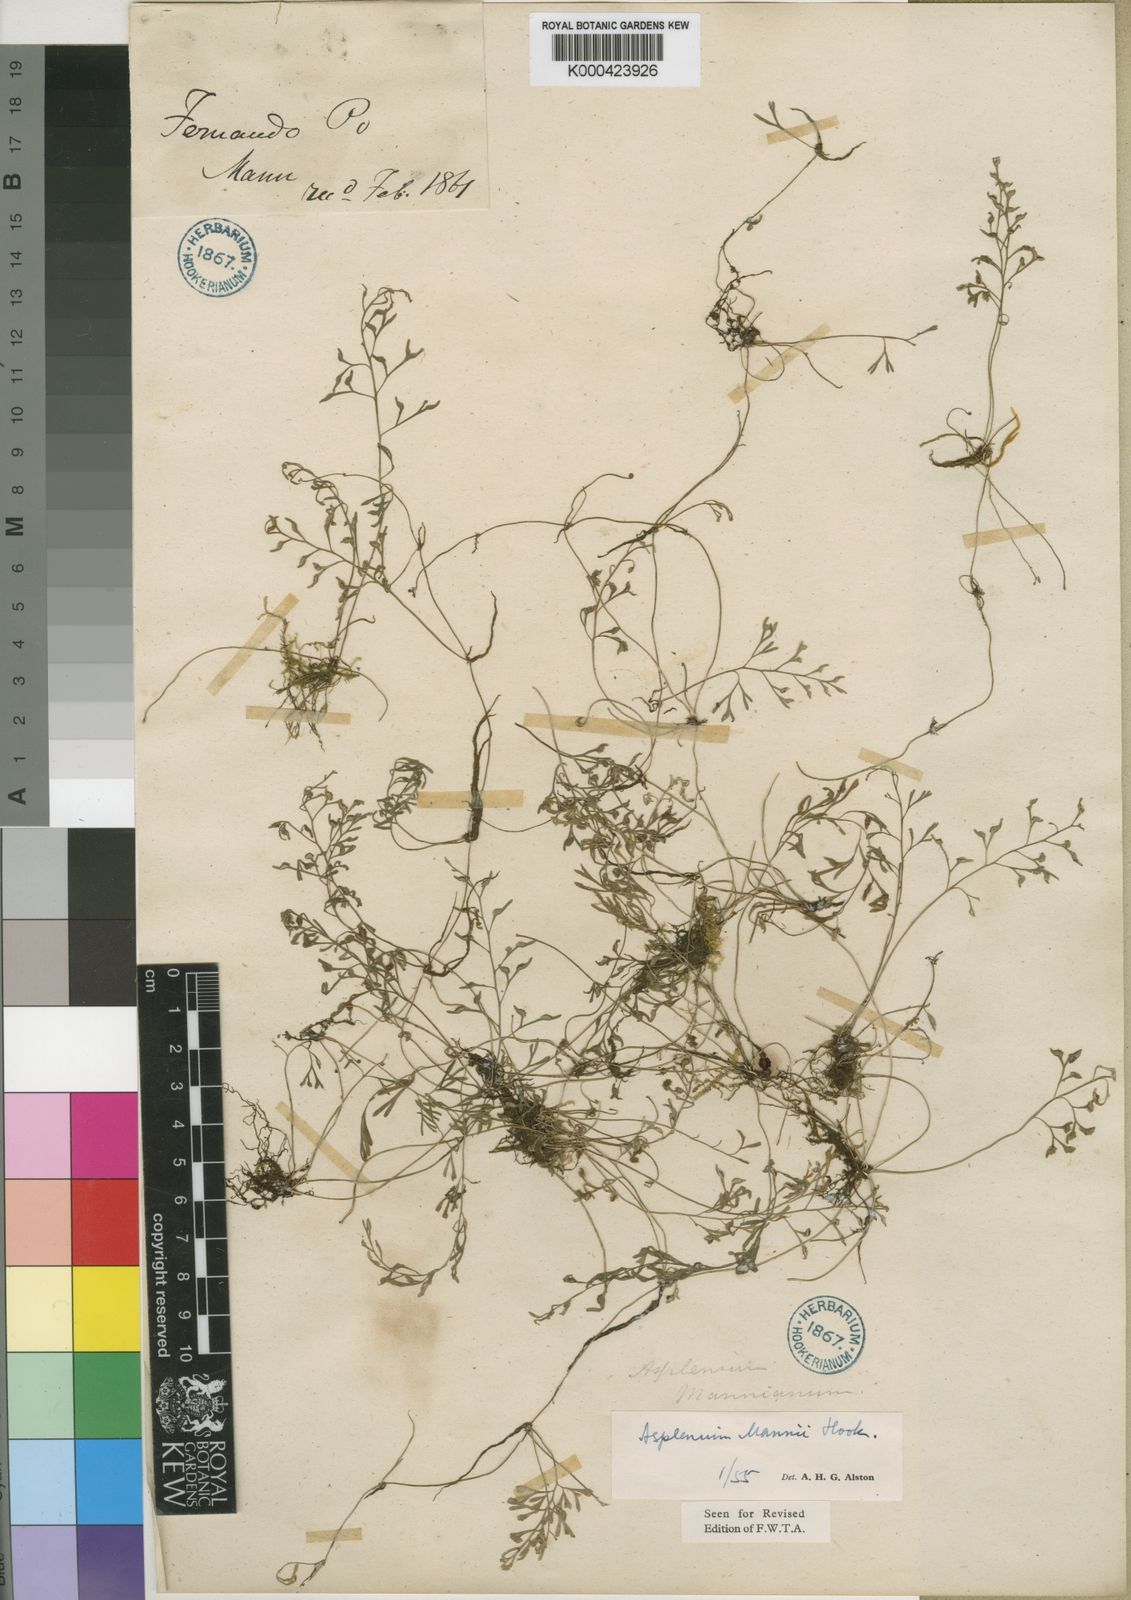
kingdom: Plantae
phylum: Tracheophyta
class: Polypodiopsida
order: Polypodiales
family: Aspleniaceae
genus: Asplenium
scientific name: Asplenium mannii
